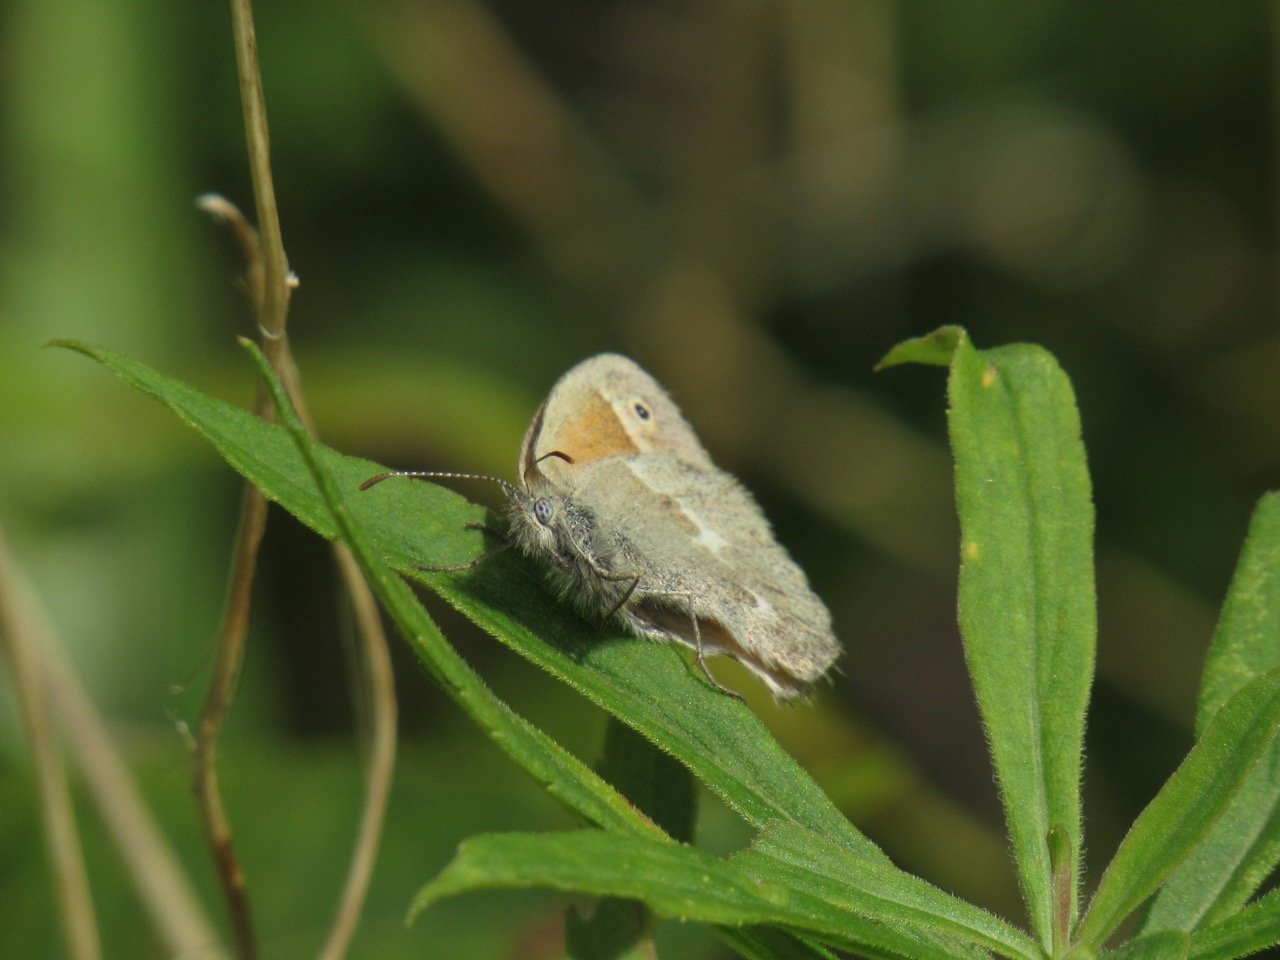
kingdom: Animalia
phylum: Arthropoda
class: Insecta
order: Lepidoptera
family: Nymphalidae
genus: Coenonympha
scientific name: Coenonympha tullia
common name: Large Heath
